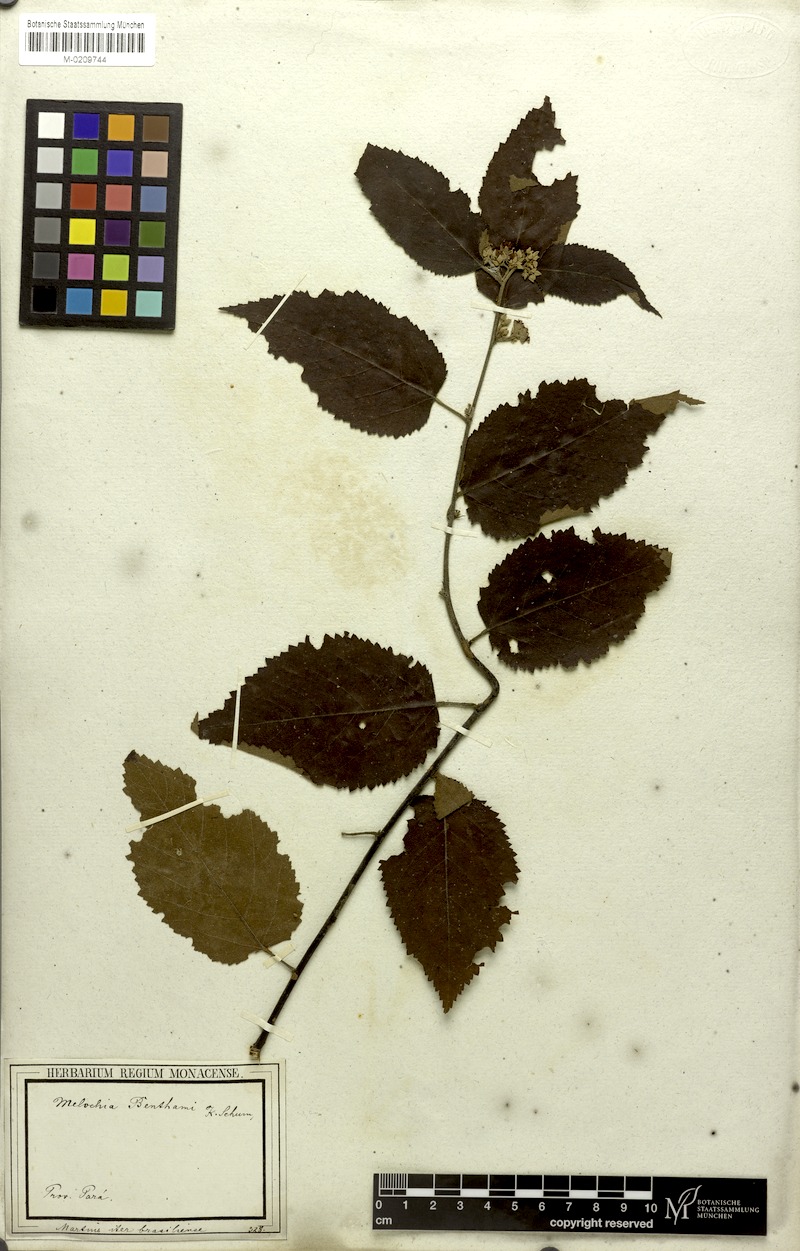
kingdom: Plantae
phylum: Tracheophyta
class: Magnoliopsida
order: Malvales
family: Malvaceae
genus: Melochia
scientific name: Melochia ulmifolia
